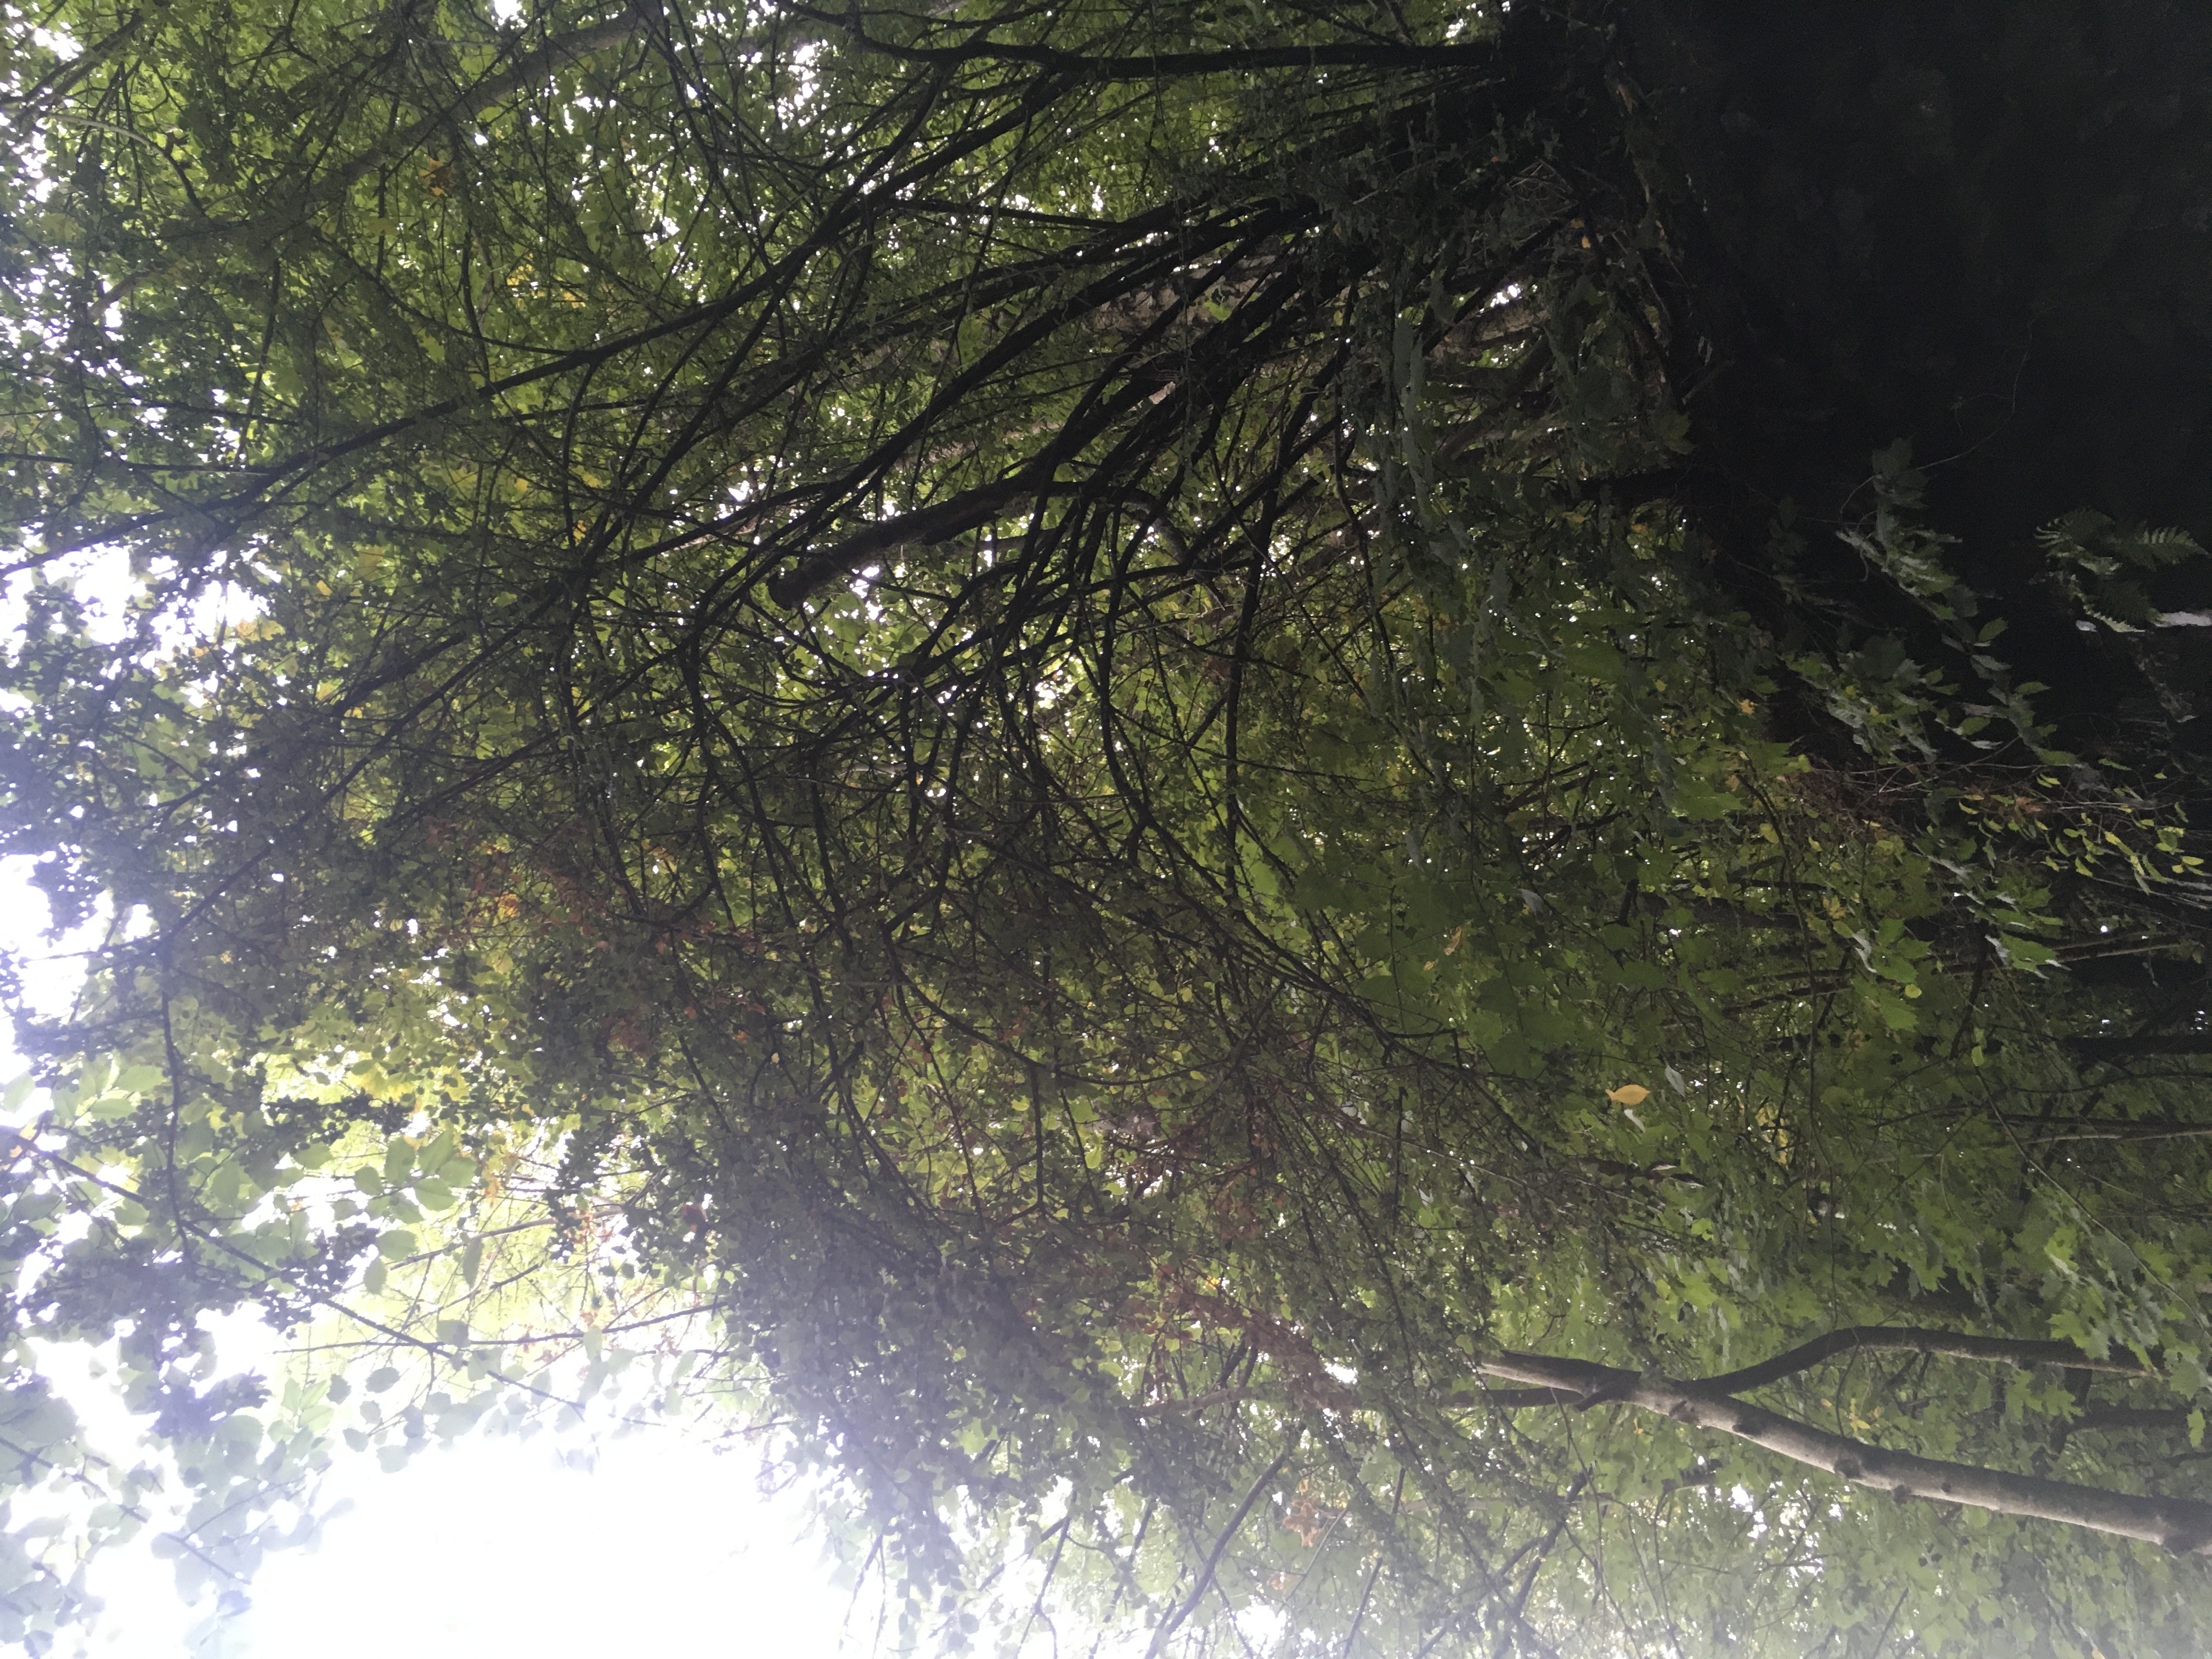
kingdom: Plantae
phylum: Tracheophyta
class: Magnoliopsida
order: Rosales
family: Rosaceae
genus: Cotoneaster
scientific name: Cotoneaster divaricatus
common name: sprikemispel
